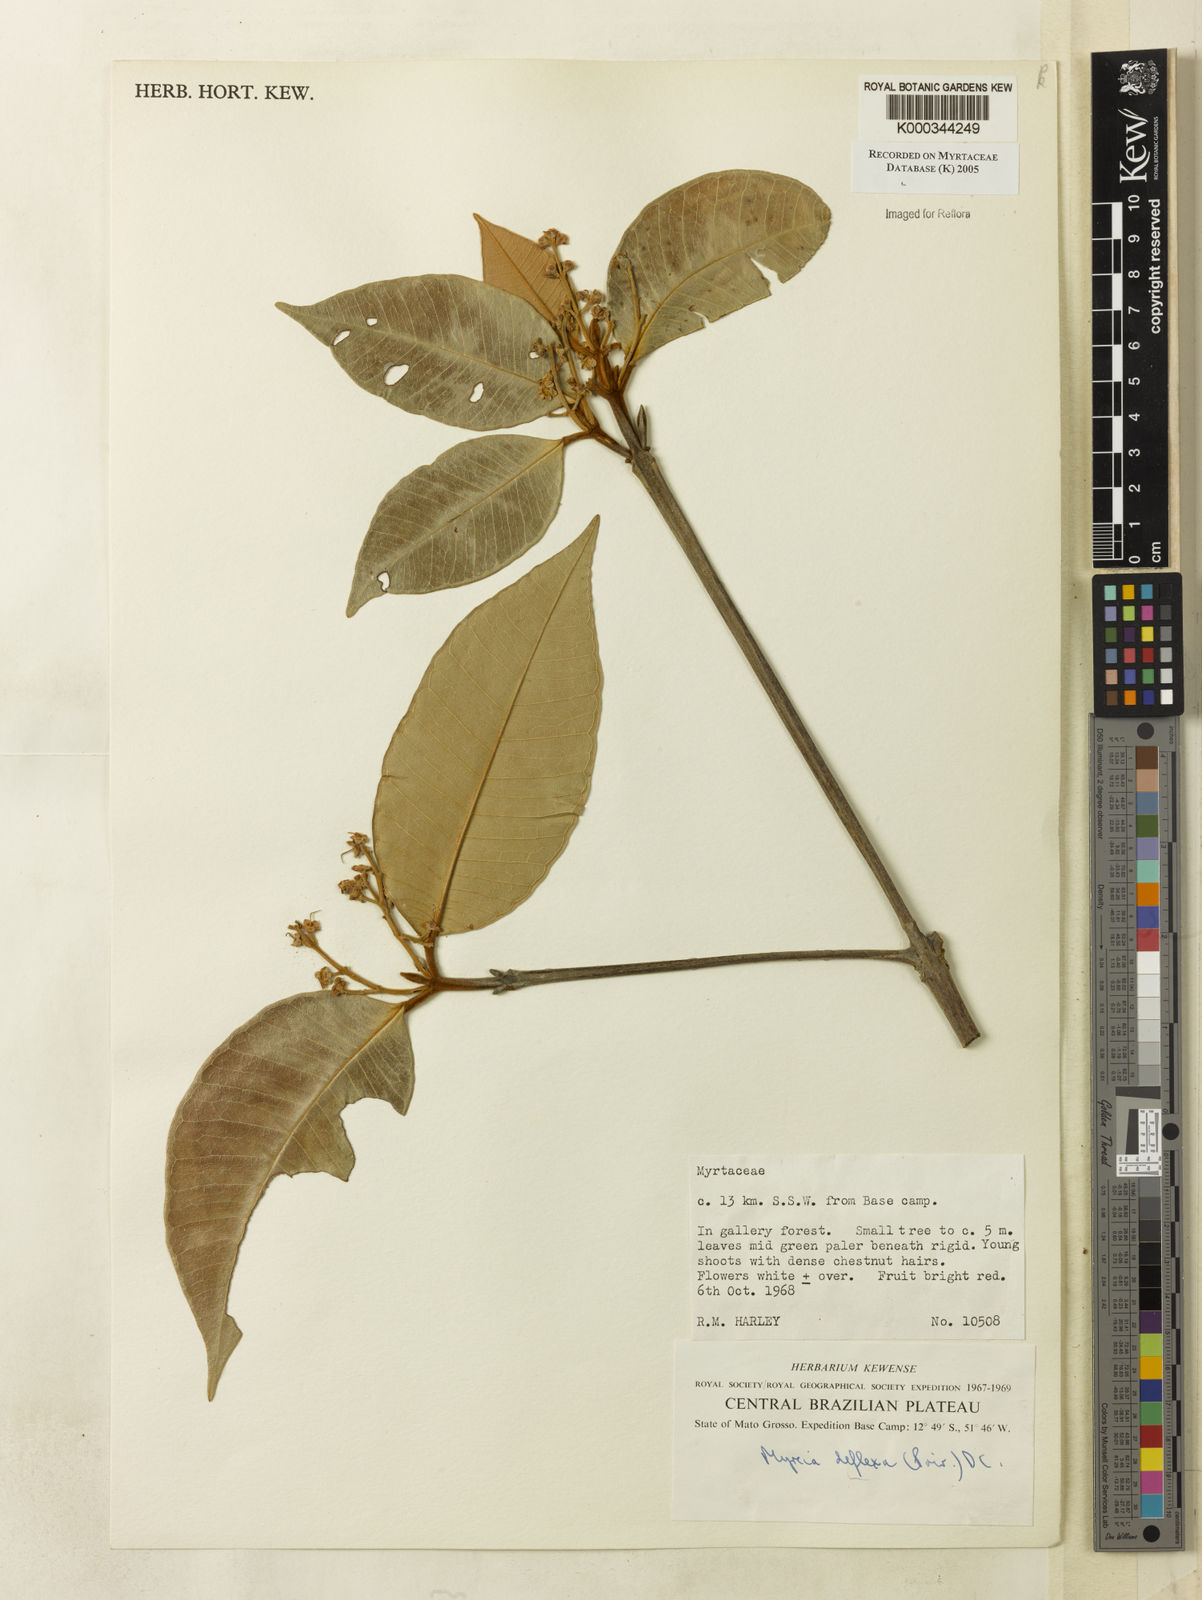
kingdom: Plantae
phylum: Tracheophyta
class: Magnoliopsida
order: Myrtales
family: Myrtaceae
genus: Myrcia
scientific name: Myrcia deflexa
